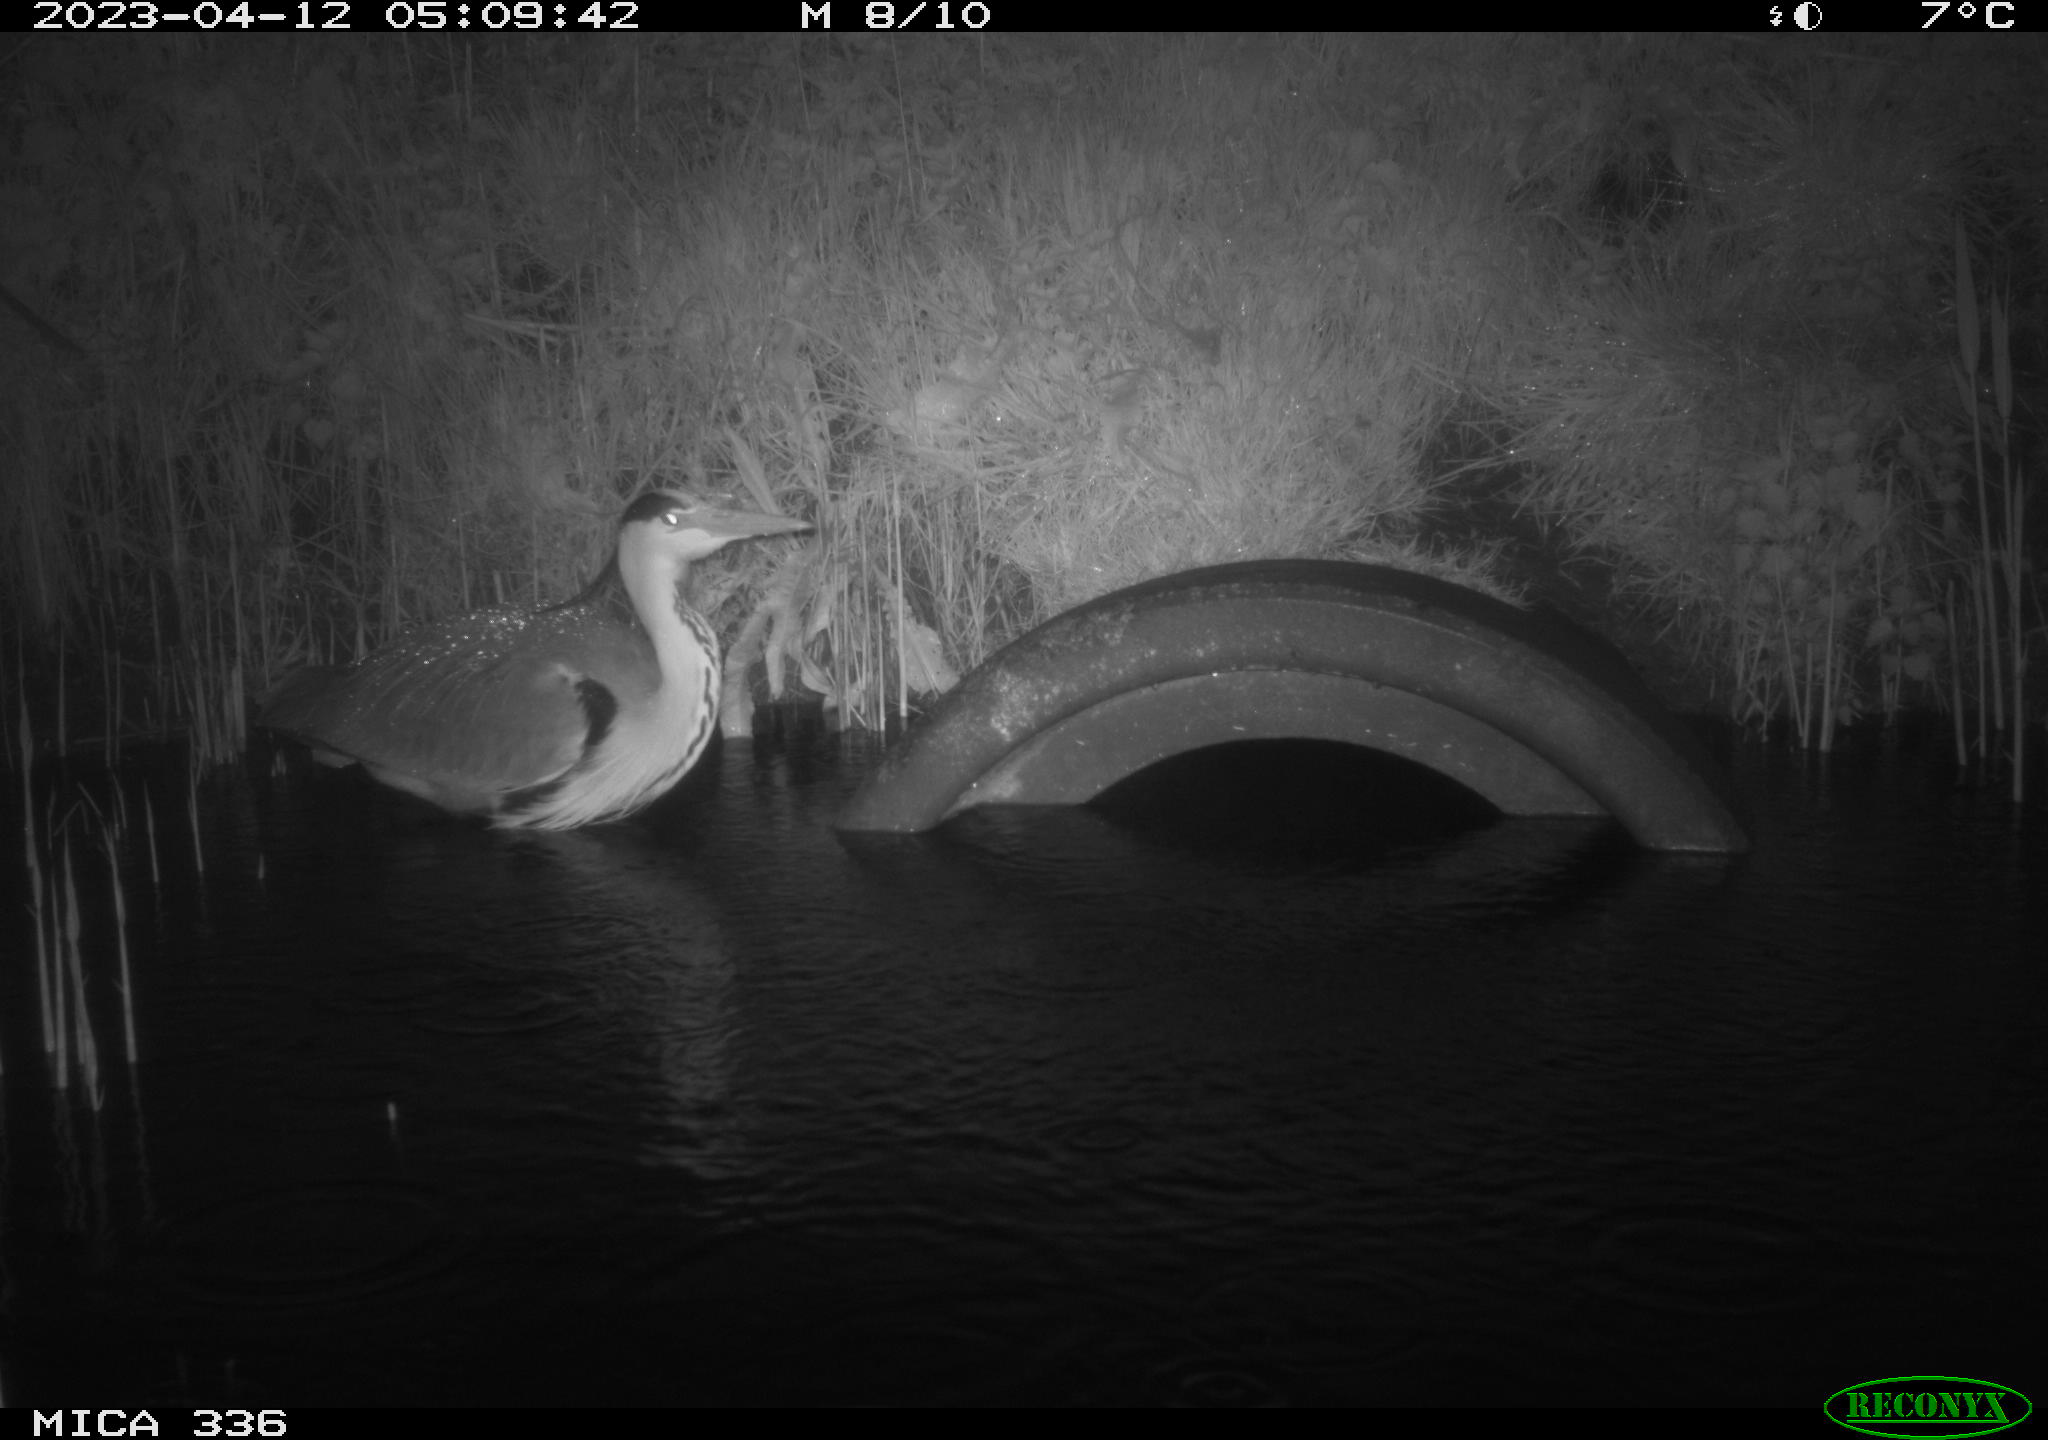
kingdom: Animalia
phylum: Chordata
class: Aves
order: Pelecaniformes
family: Ardeidae
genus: Ardea
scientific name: Ardea
